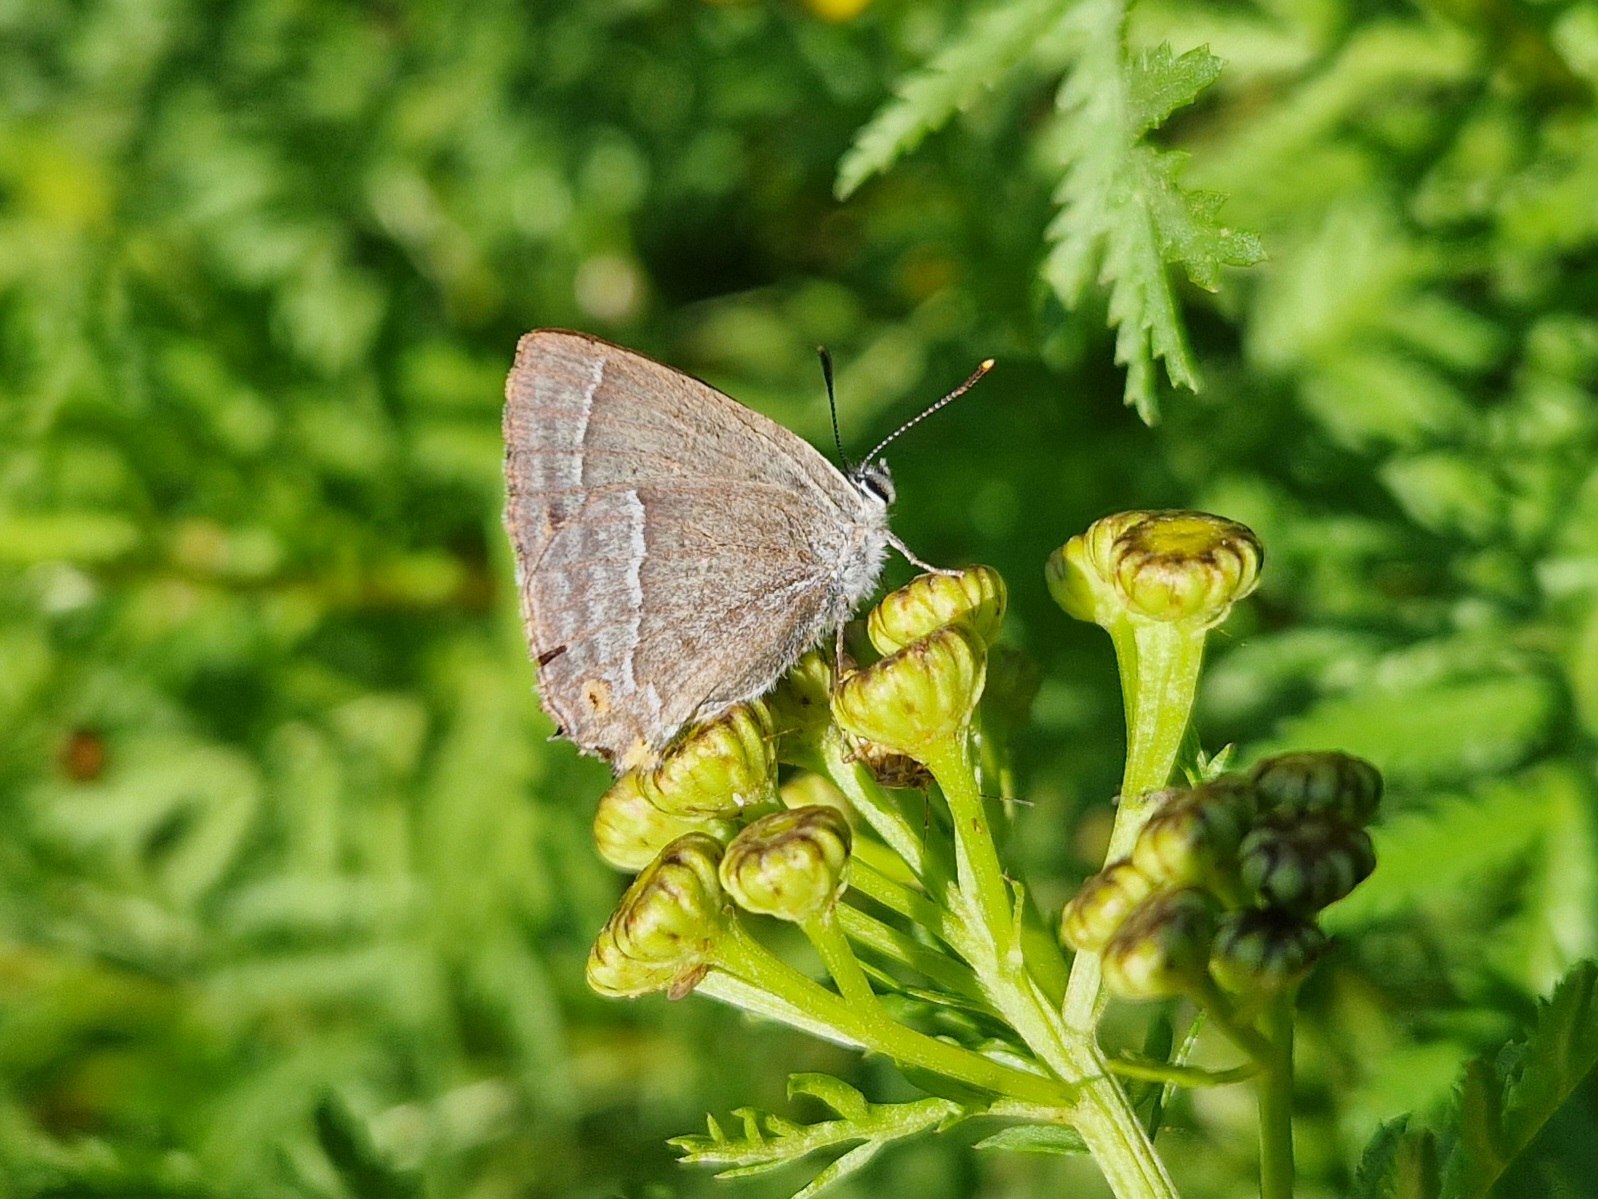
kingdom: Animalia
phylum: Arthropoda
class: Insecta
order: Lepidoptera
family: Lycaenidae
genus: Quercusia
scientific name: Quercusia quercus
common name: Blåhale
